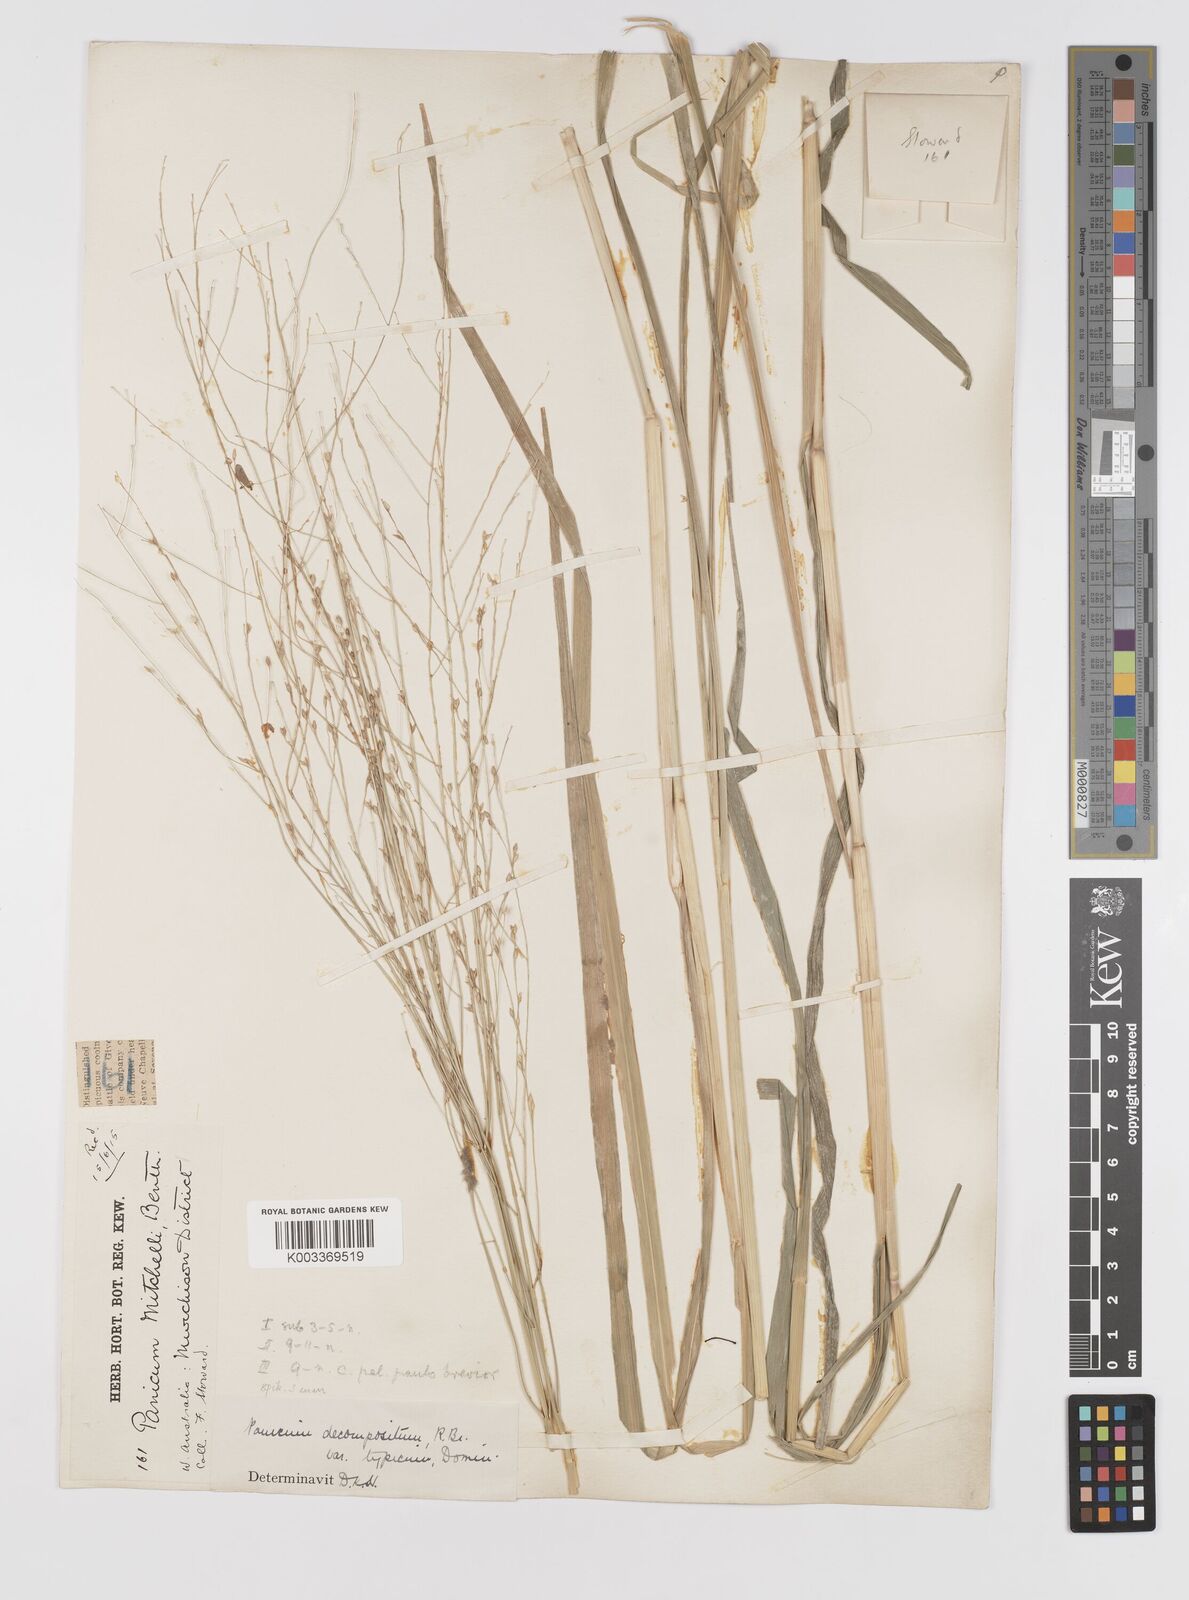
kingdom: Plantae
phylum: Tracheophyta
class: Liliopsida
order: Poales
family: Poaceae
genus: Panicum
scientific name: Panicum decompositum
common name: Australian millet
